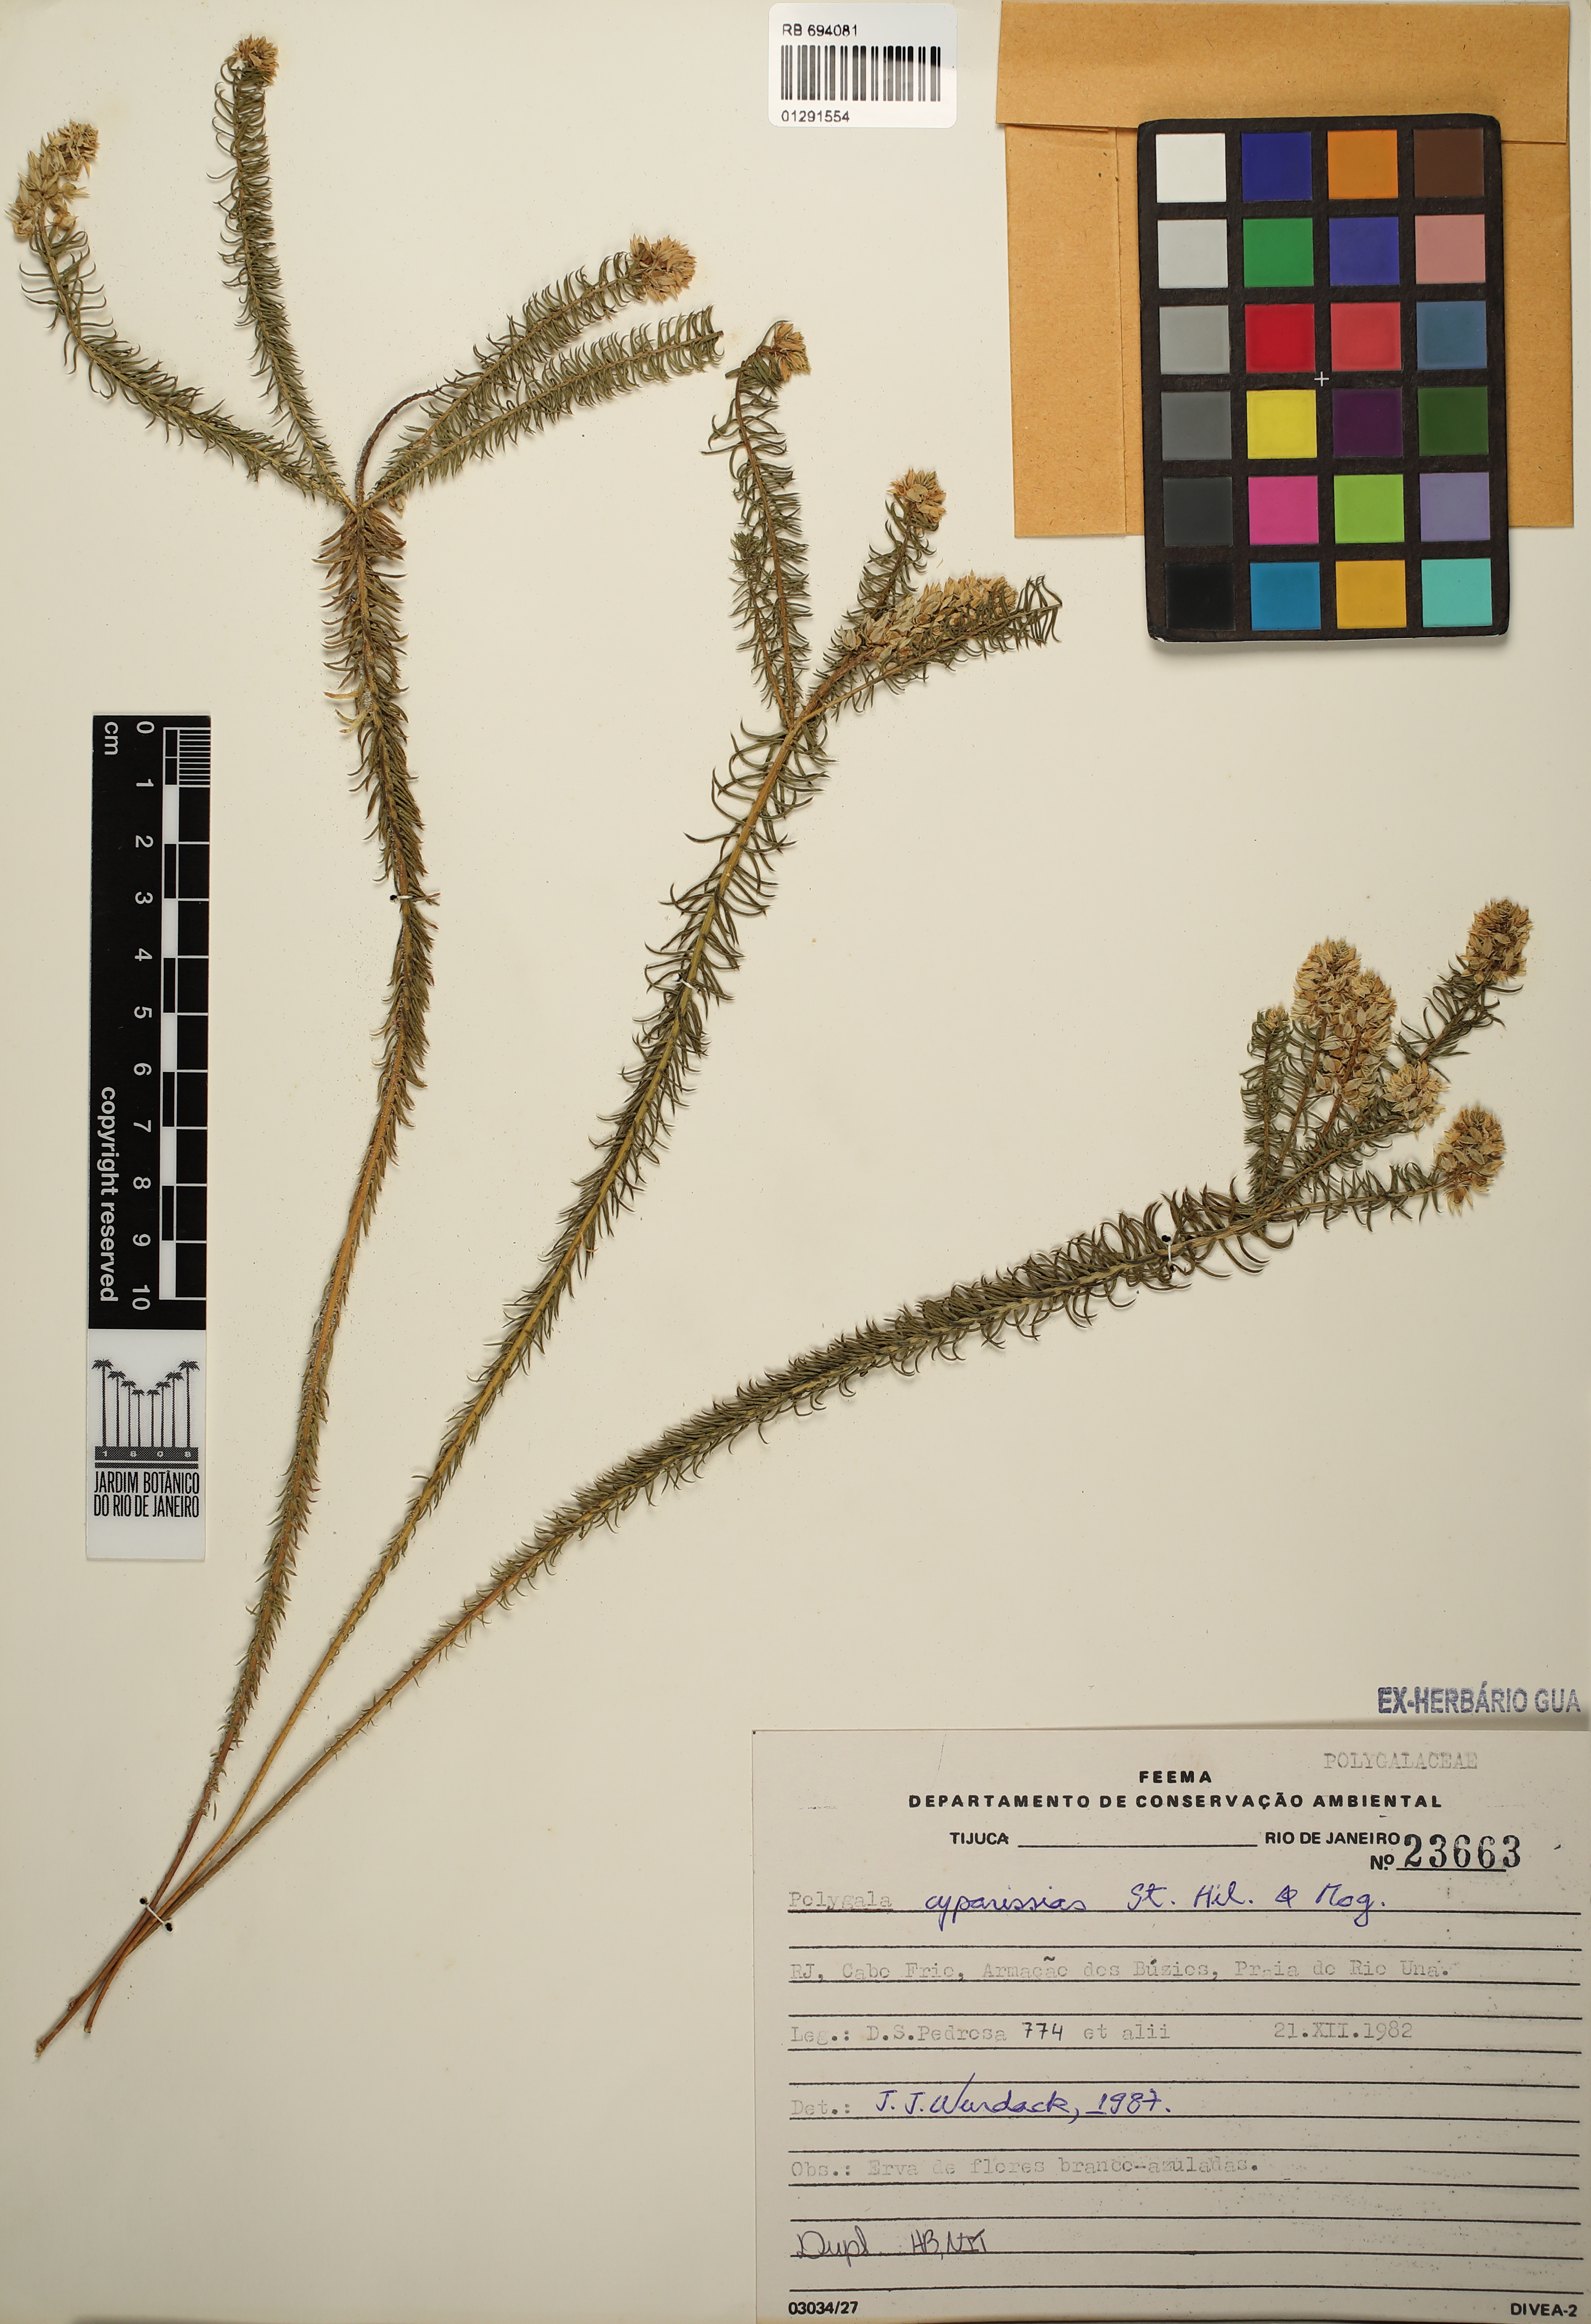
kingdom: Plantae
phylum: Tracheophyta
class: Magnoliopsida
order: Fabales
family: Polygalaceae
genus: Polygala
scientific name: Polygala cyparissias
